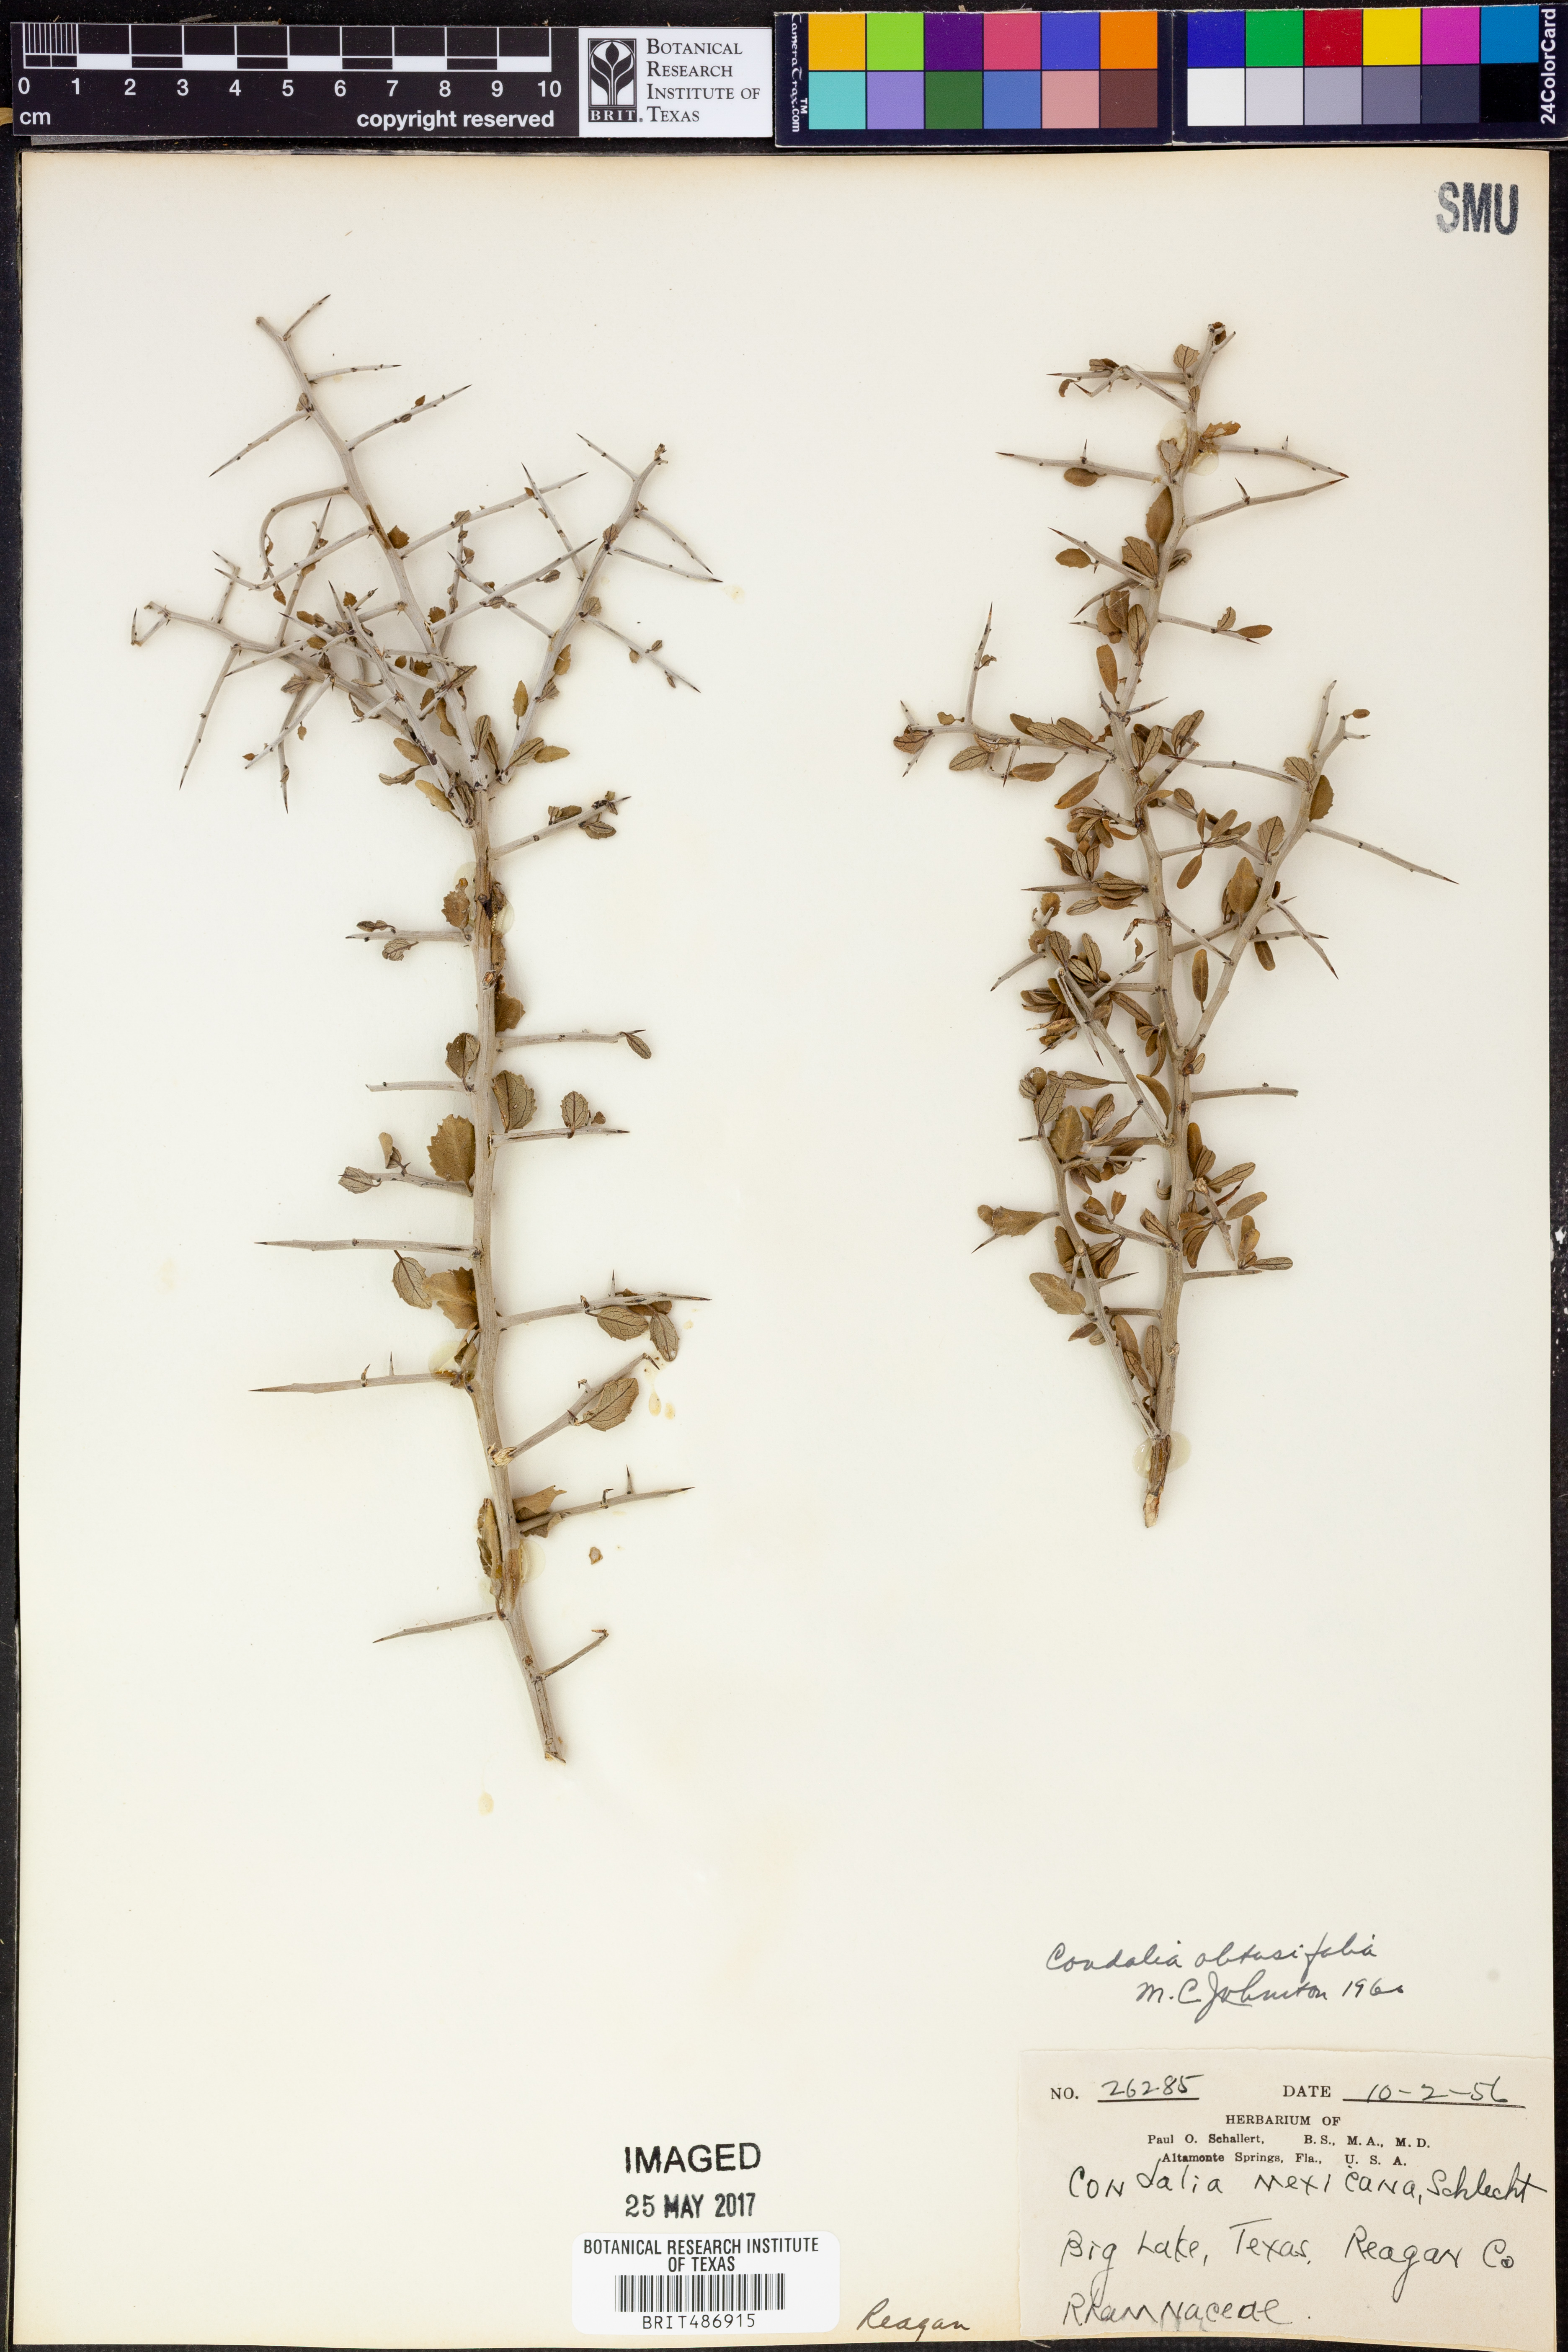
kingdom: Plantae
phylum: Tracheophyta
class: Magnoliopsida
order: Rosales
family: Rhamnaceae
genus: Sarcomphalus
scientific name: Sarcomphalus obtusifolius
